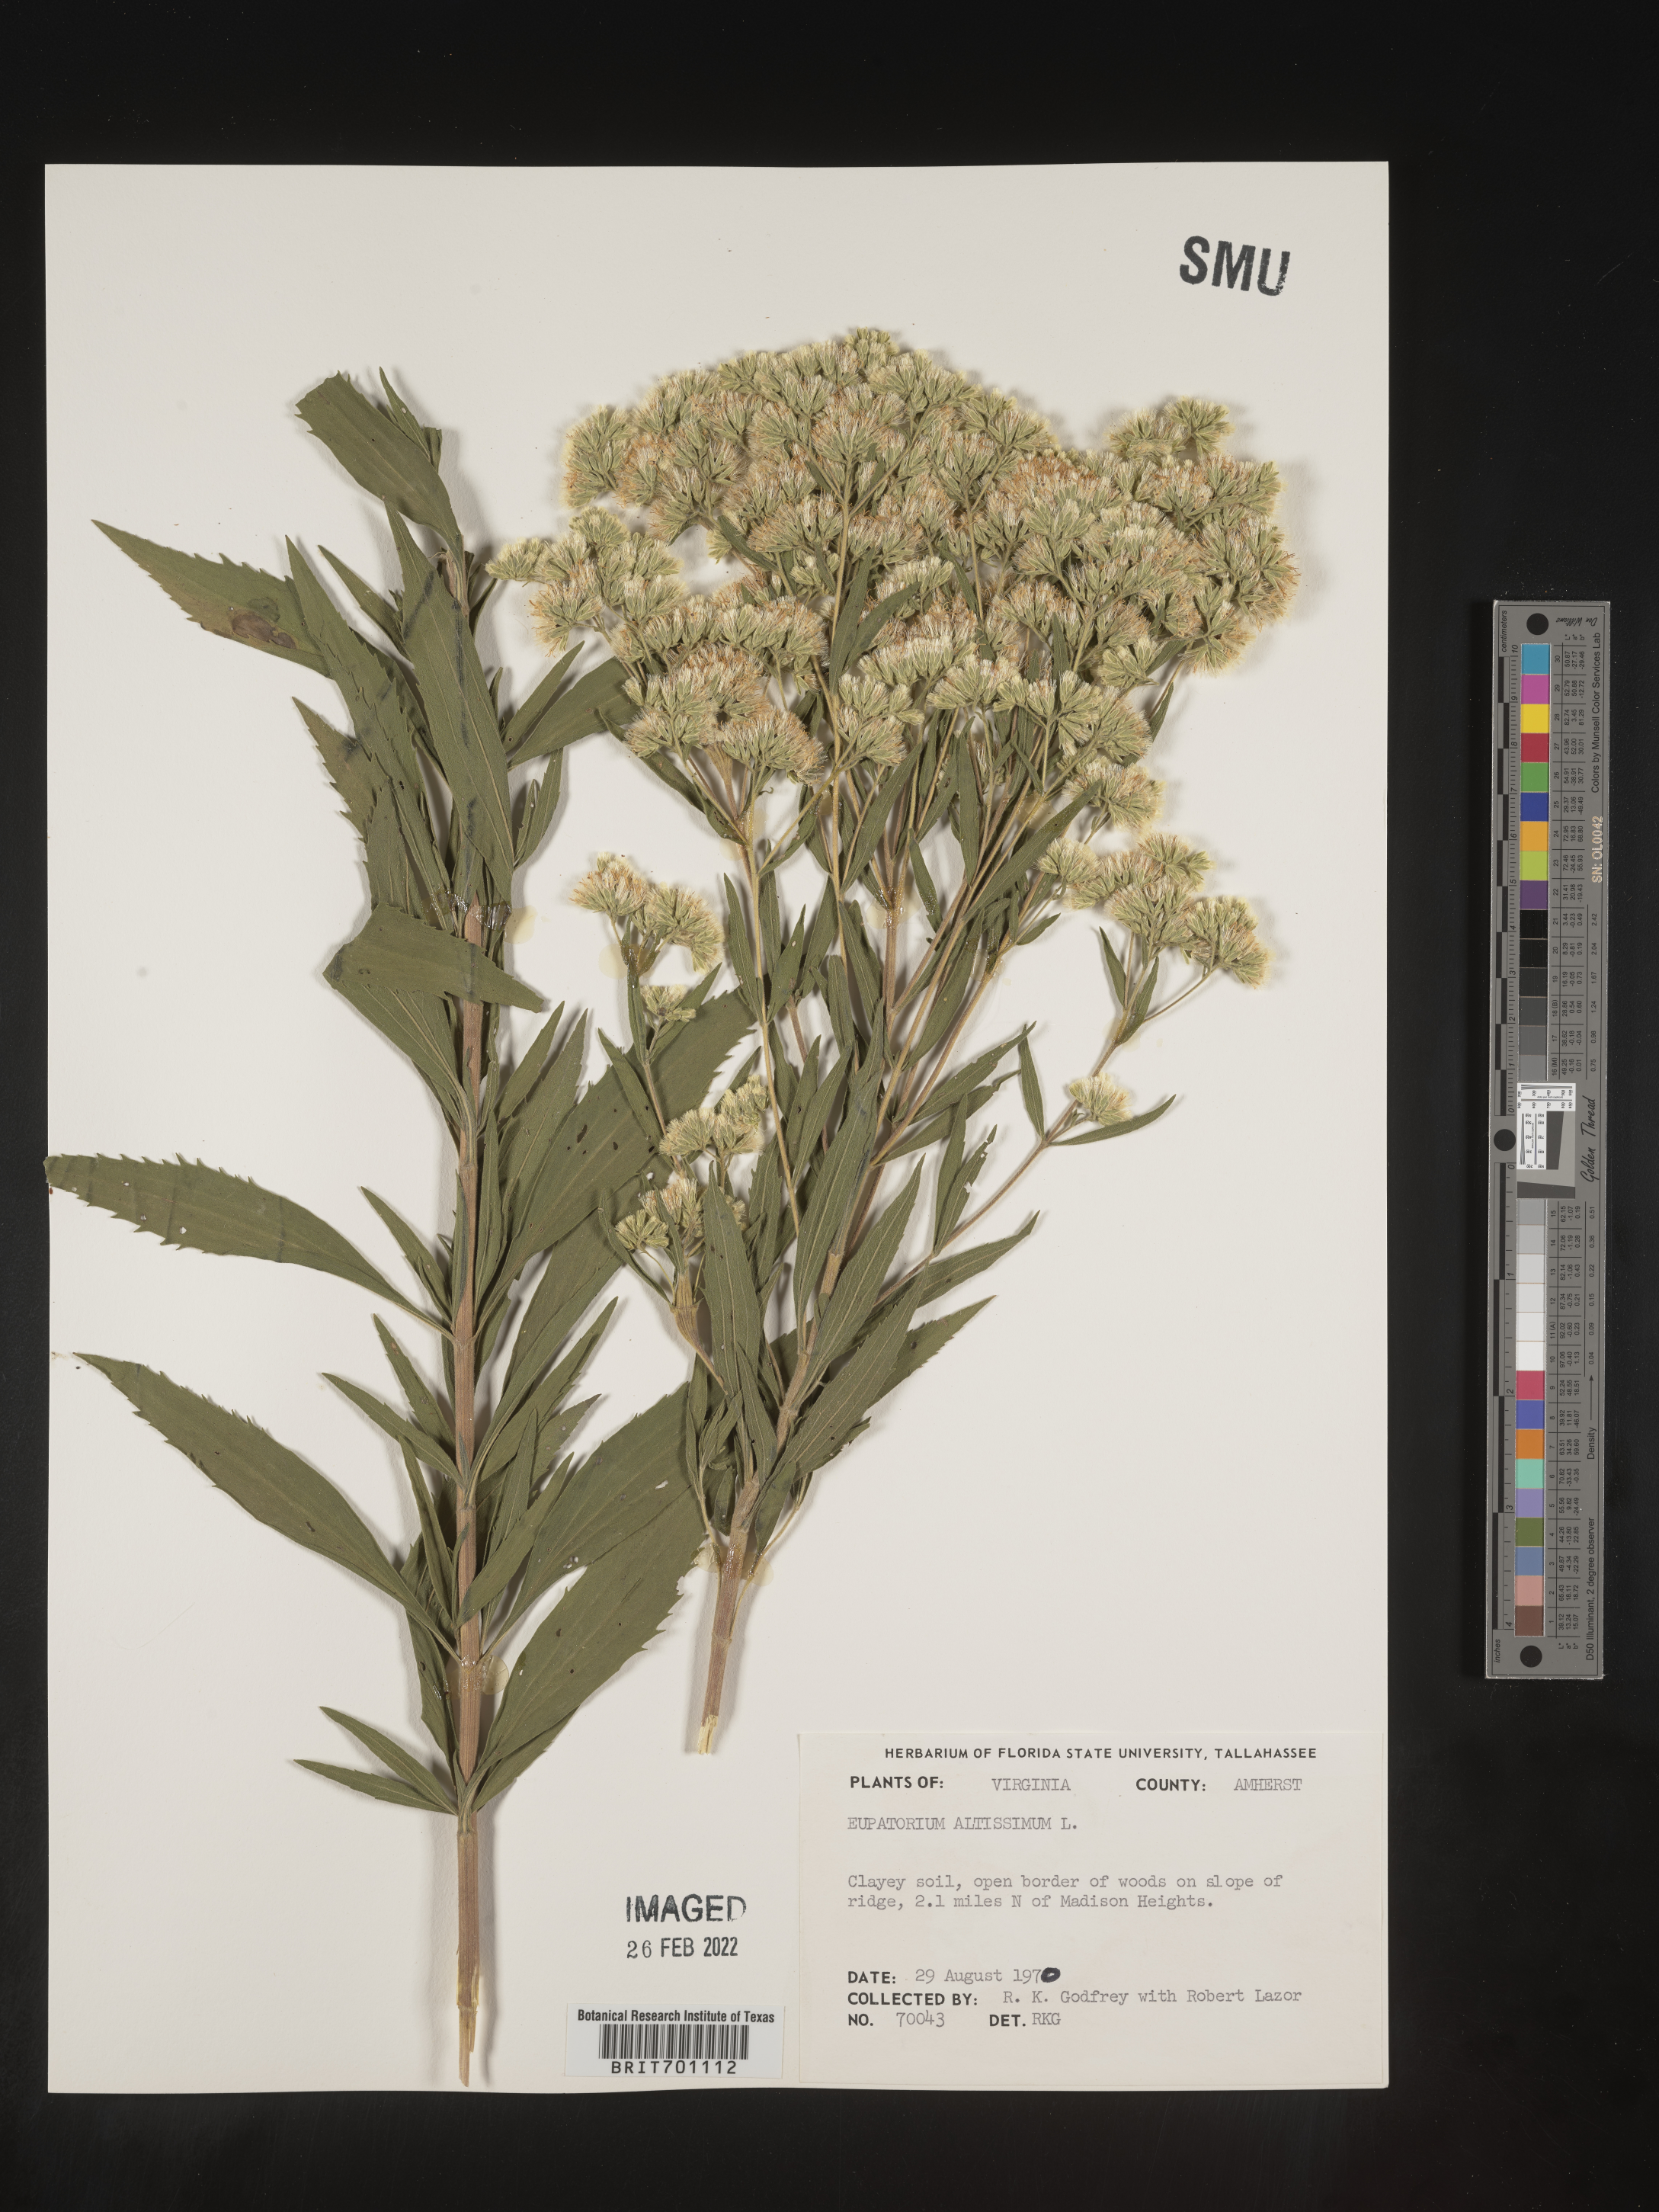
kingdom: Plantae
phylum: Tracheophyta
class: Magnoliopsida
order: Asterales
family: Asteraceae
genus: Eupatorium
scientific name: Eupatorium altissimum
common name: Tall thoroughwort
